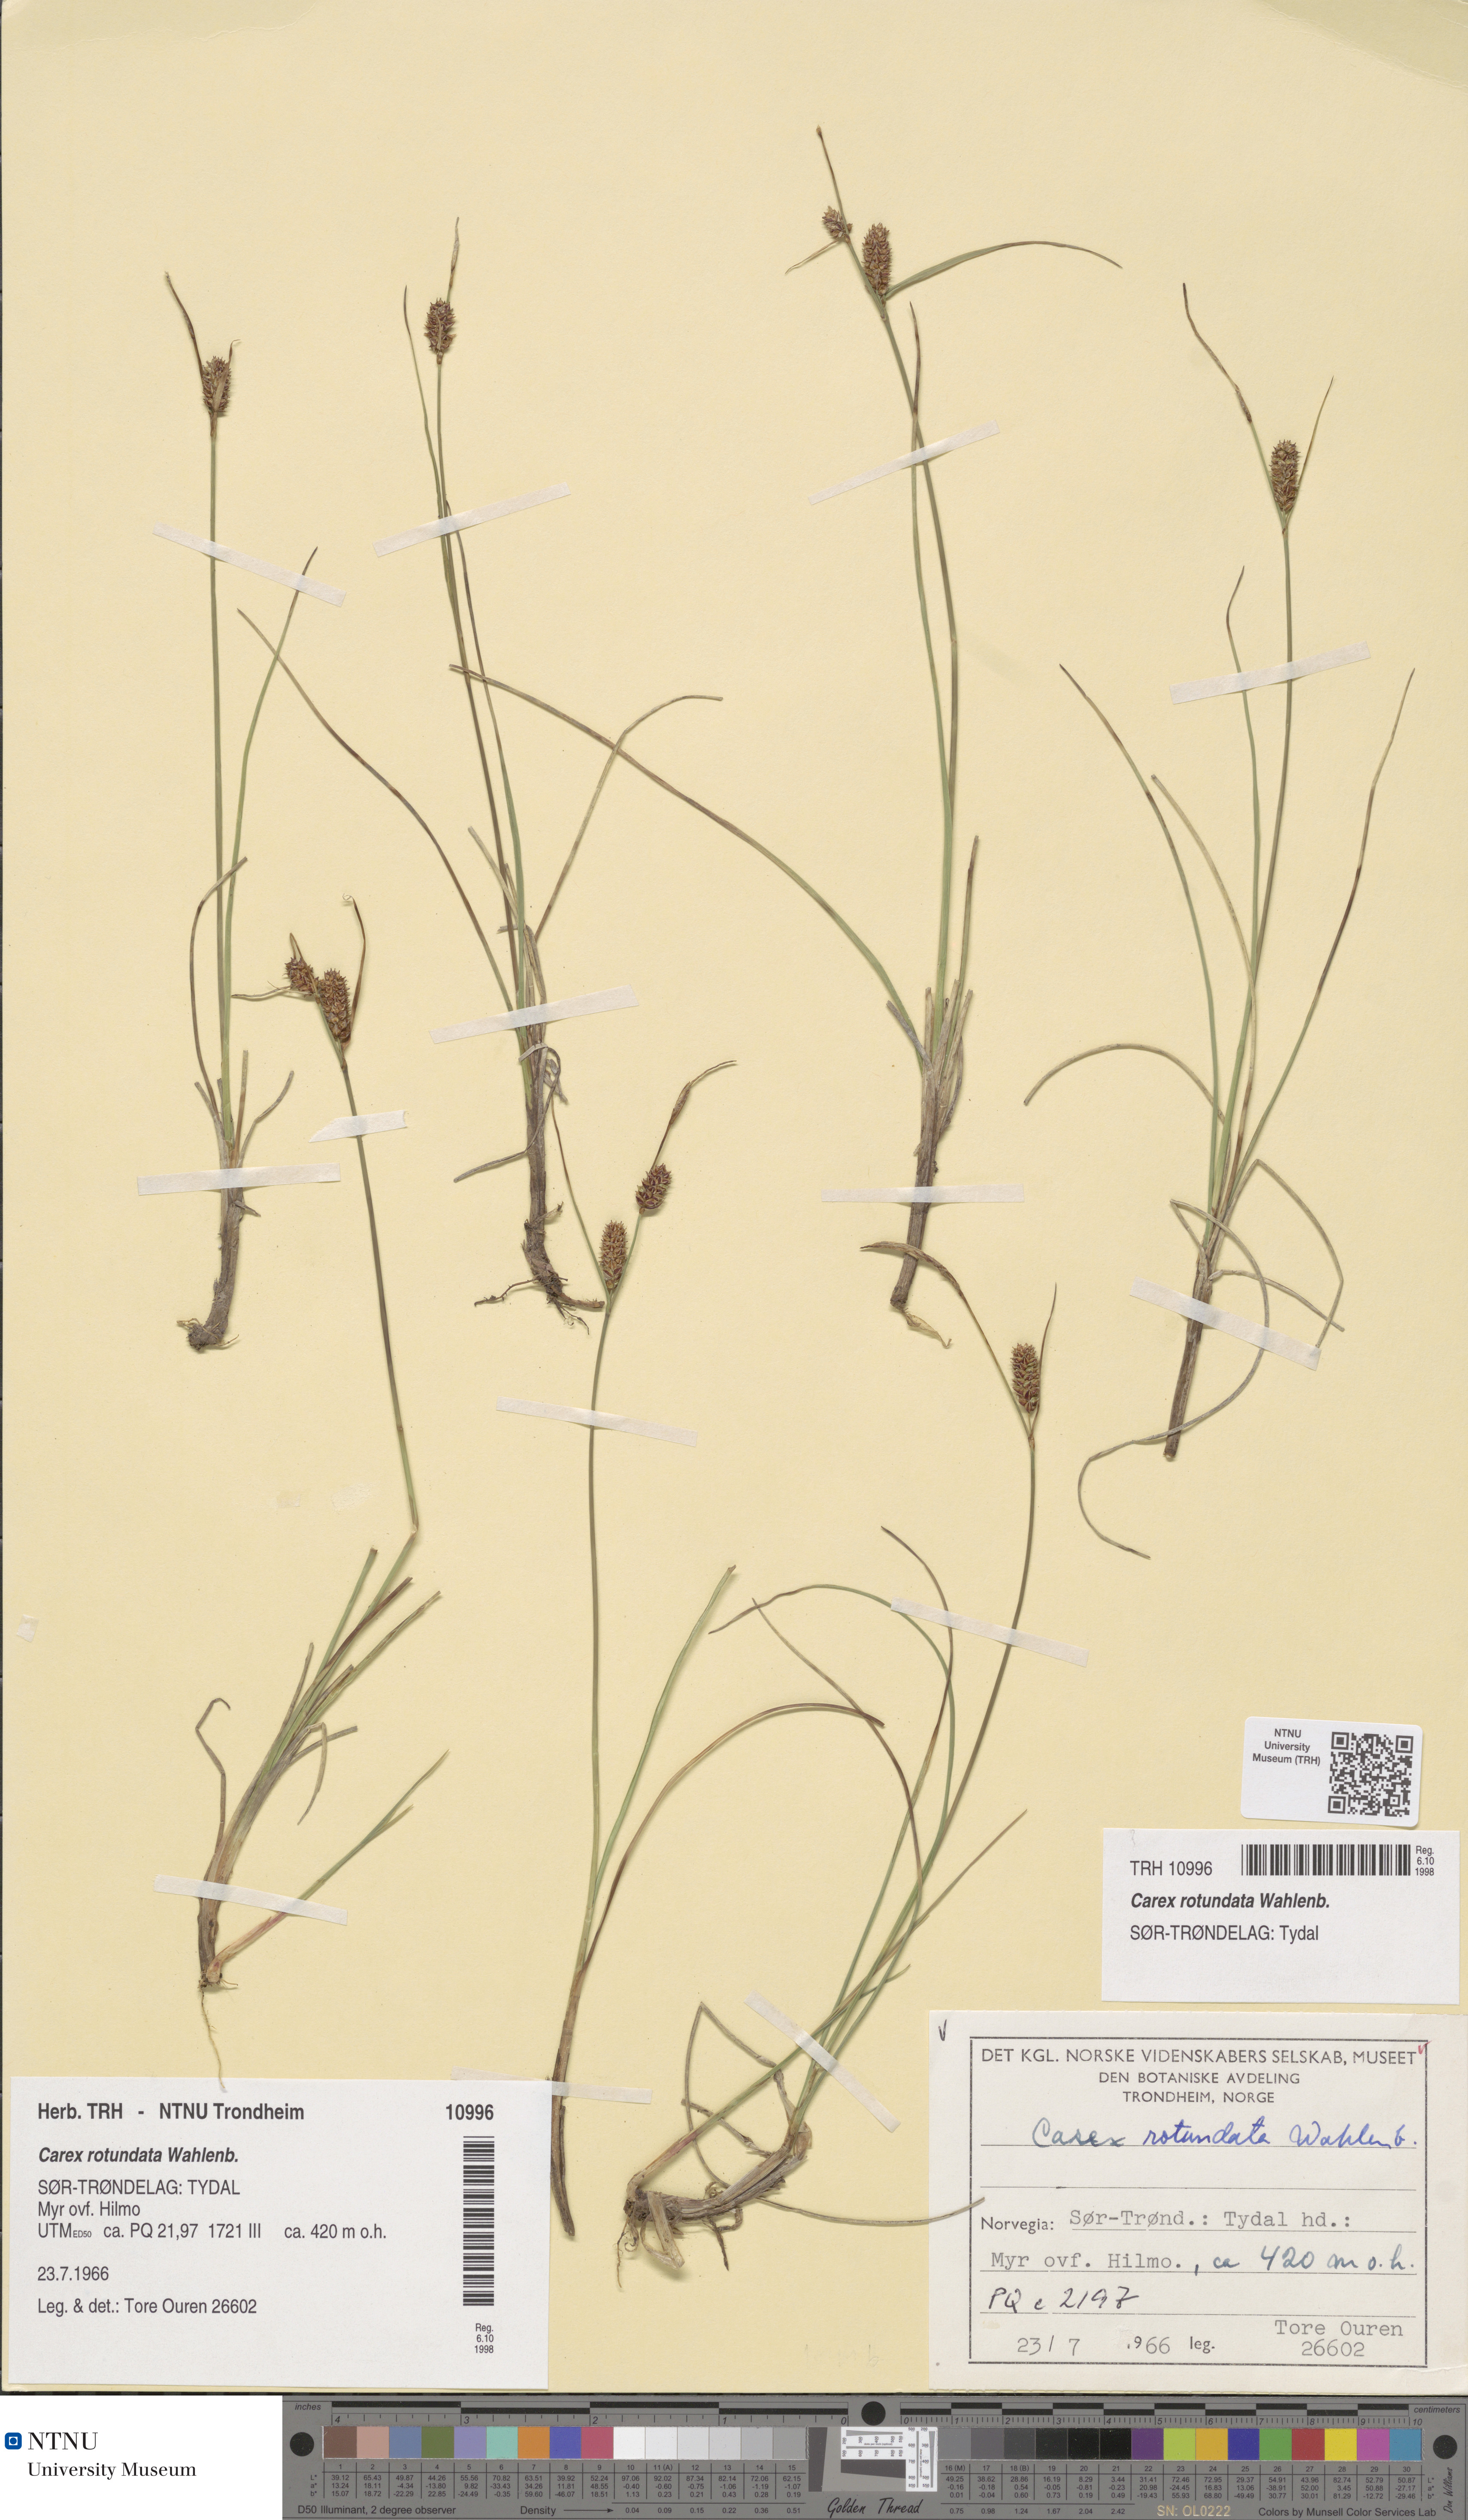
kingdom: Plantae
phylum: Tracheophyta
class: Liliopsida
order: Poales
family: Cyperaceae
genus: Carex
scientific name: Carex rotundata
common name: Round-fruited sedge
